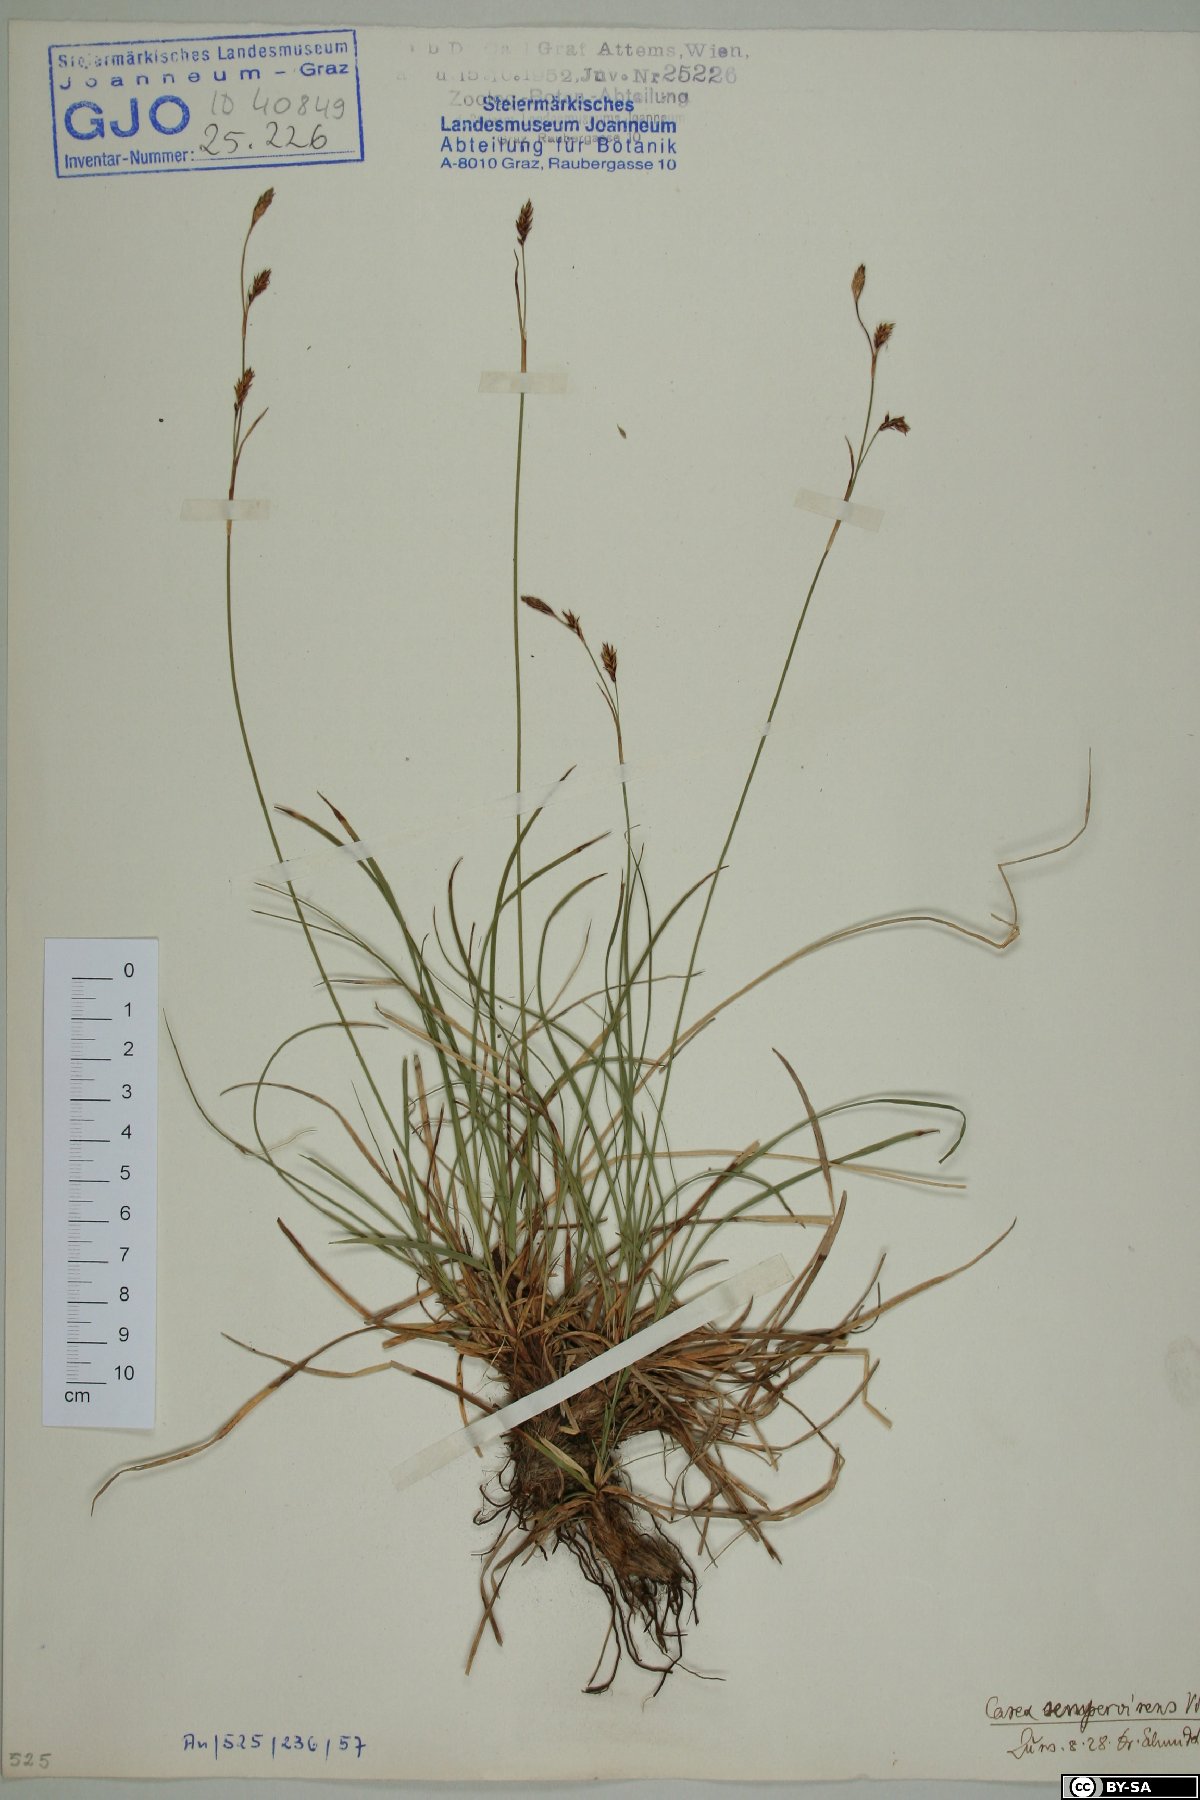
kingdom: Plantae
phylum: Tracheophyta
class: Liliopsida
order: Poales
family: Cyperaceae
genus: Carex
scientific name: Carex sempervirens
